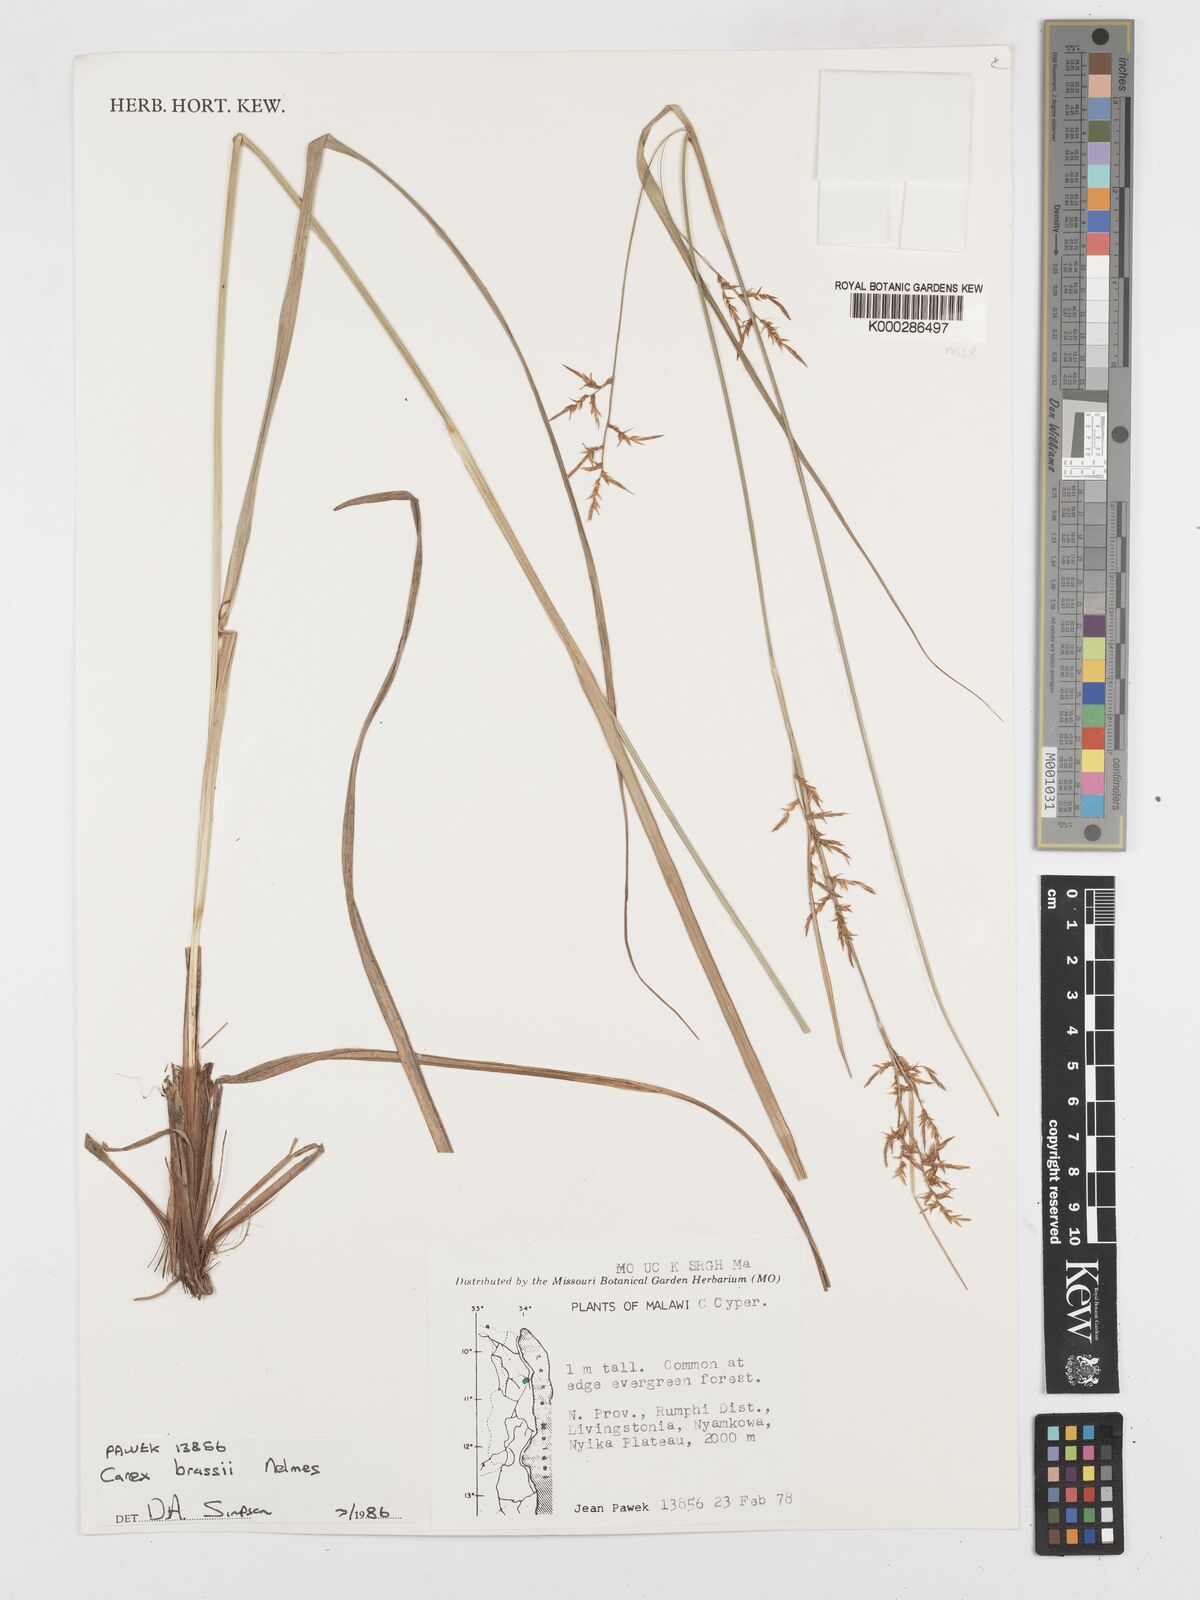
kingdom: Plantae
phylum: Tracheophyta
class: Liliopsida
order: Poales
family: Cyperaceae
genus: Carex
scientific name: Carex chlorosaccus
